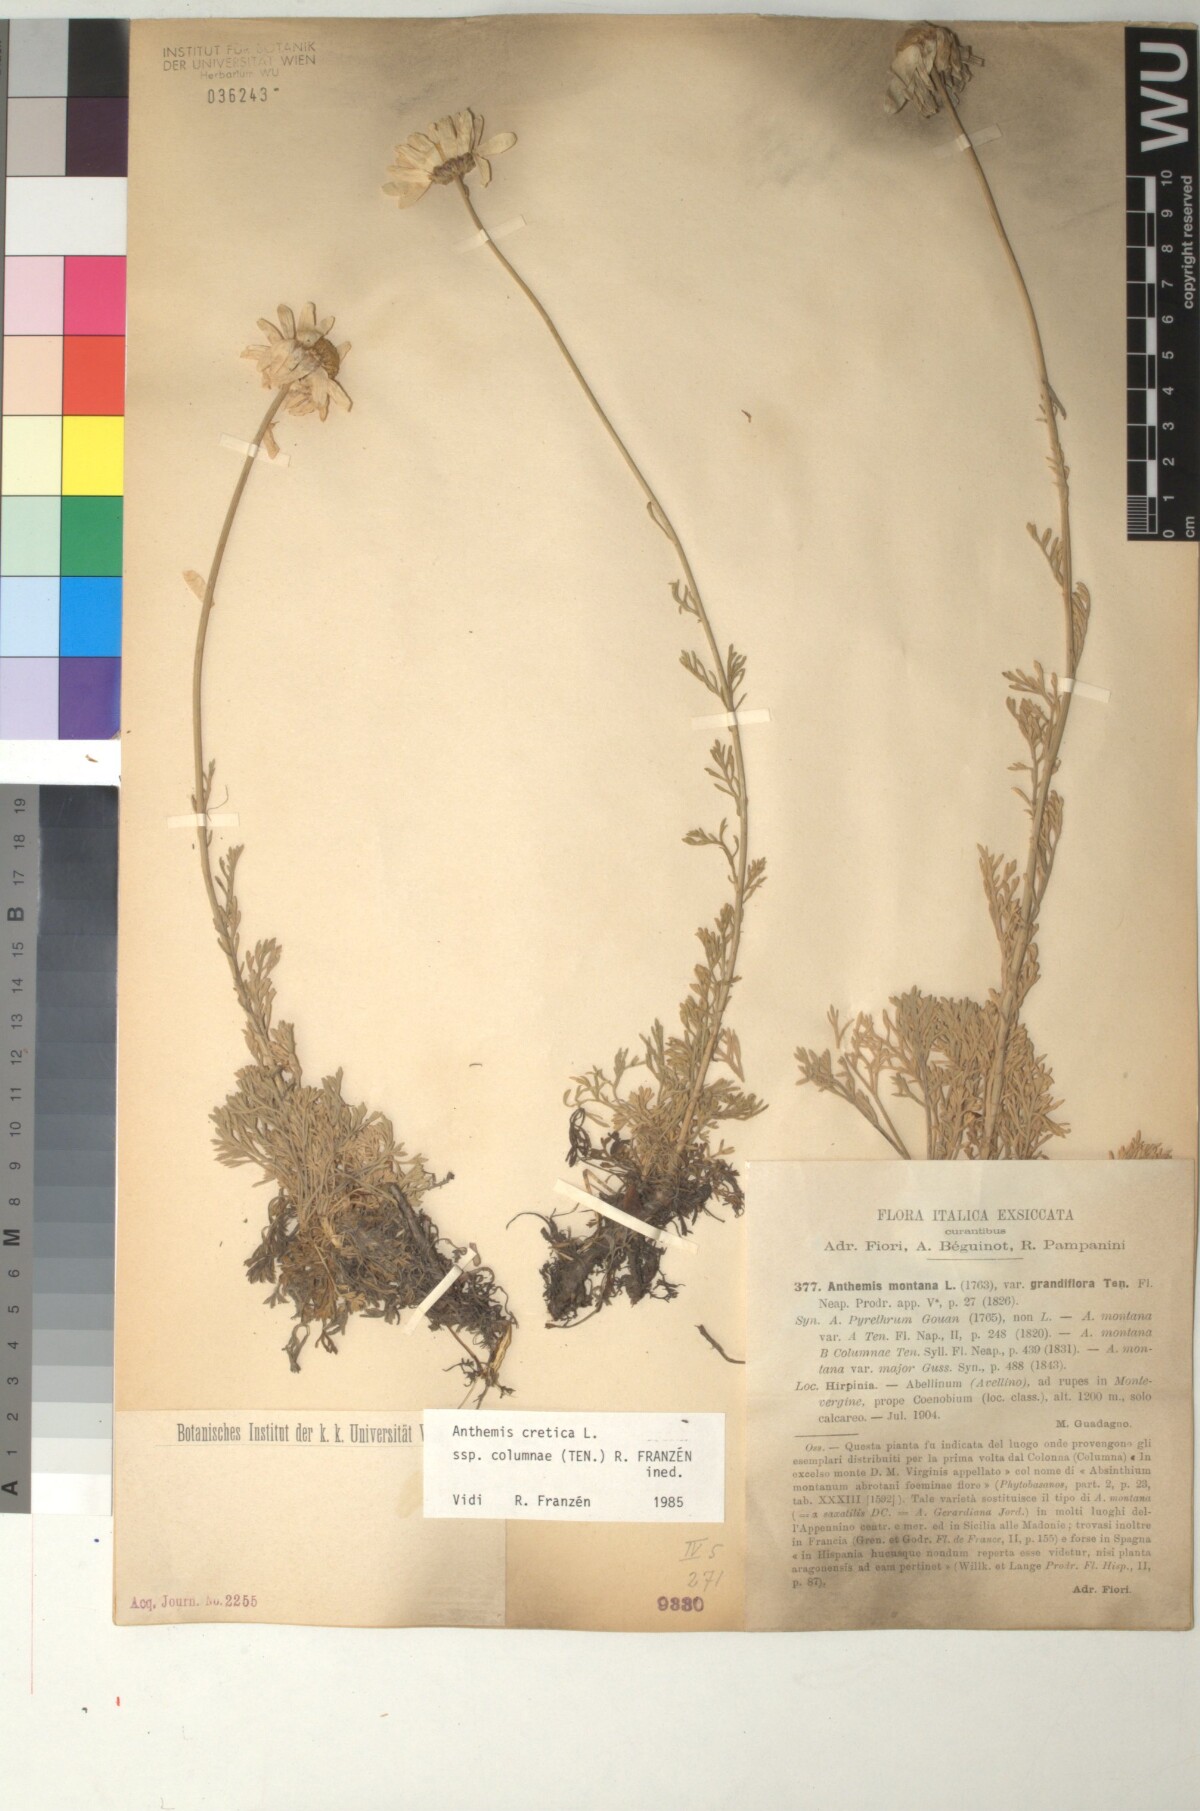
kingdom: Plantae
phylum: Tracheophyta
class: Magnoliopsida
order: Asterales
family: Asteraceae
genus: Anthemis
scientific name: Anthemis cretica
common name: Mountain dog-daisy
